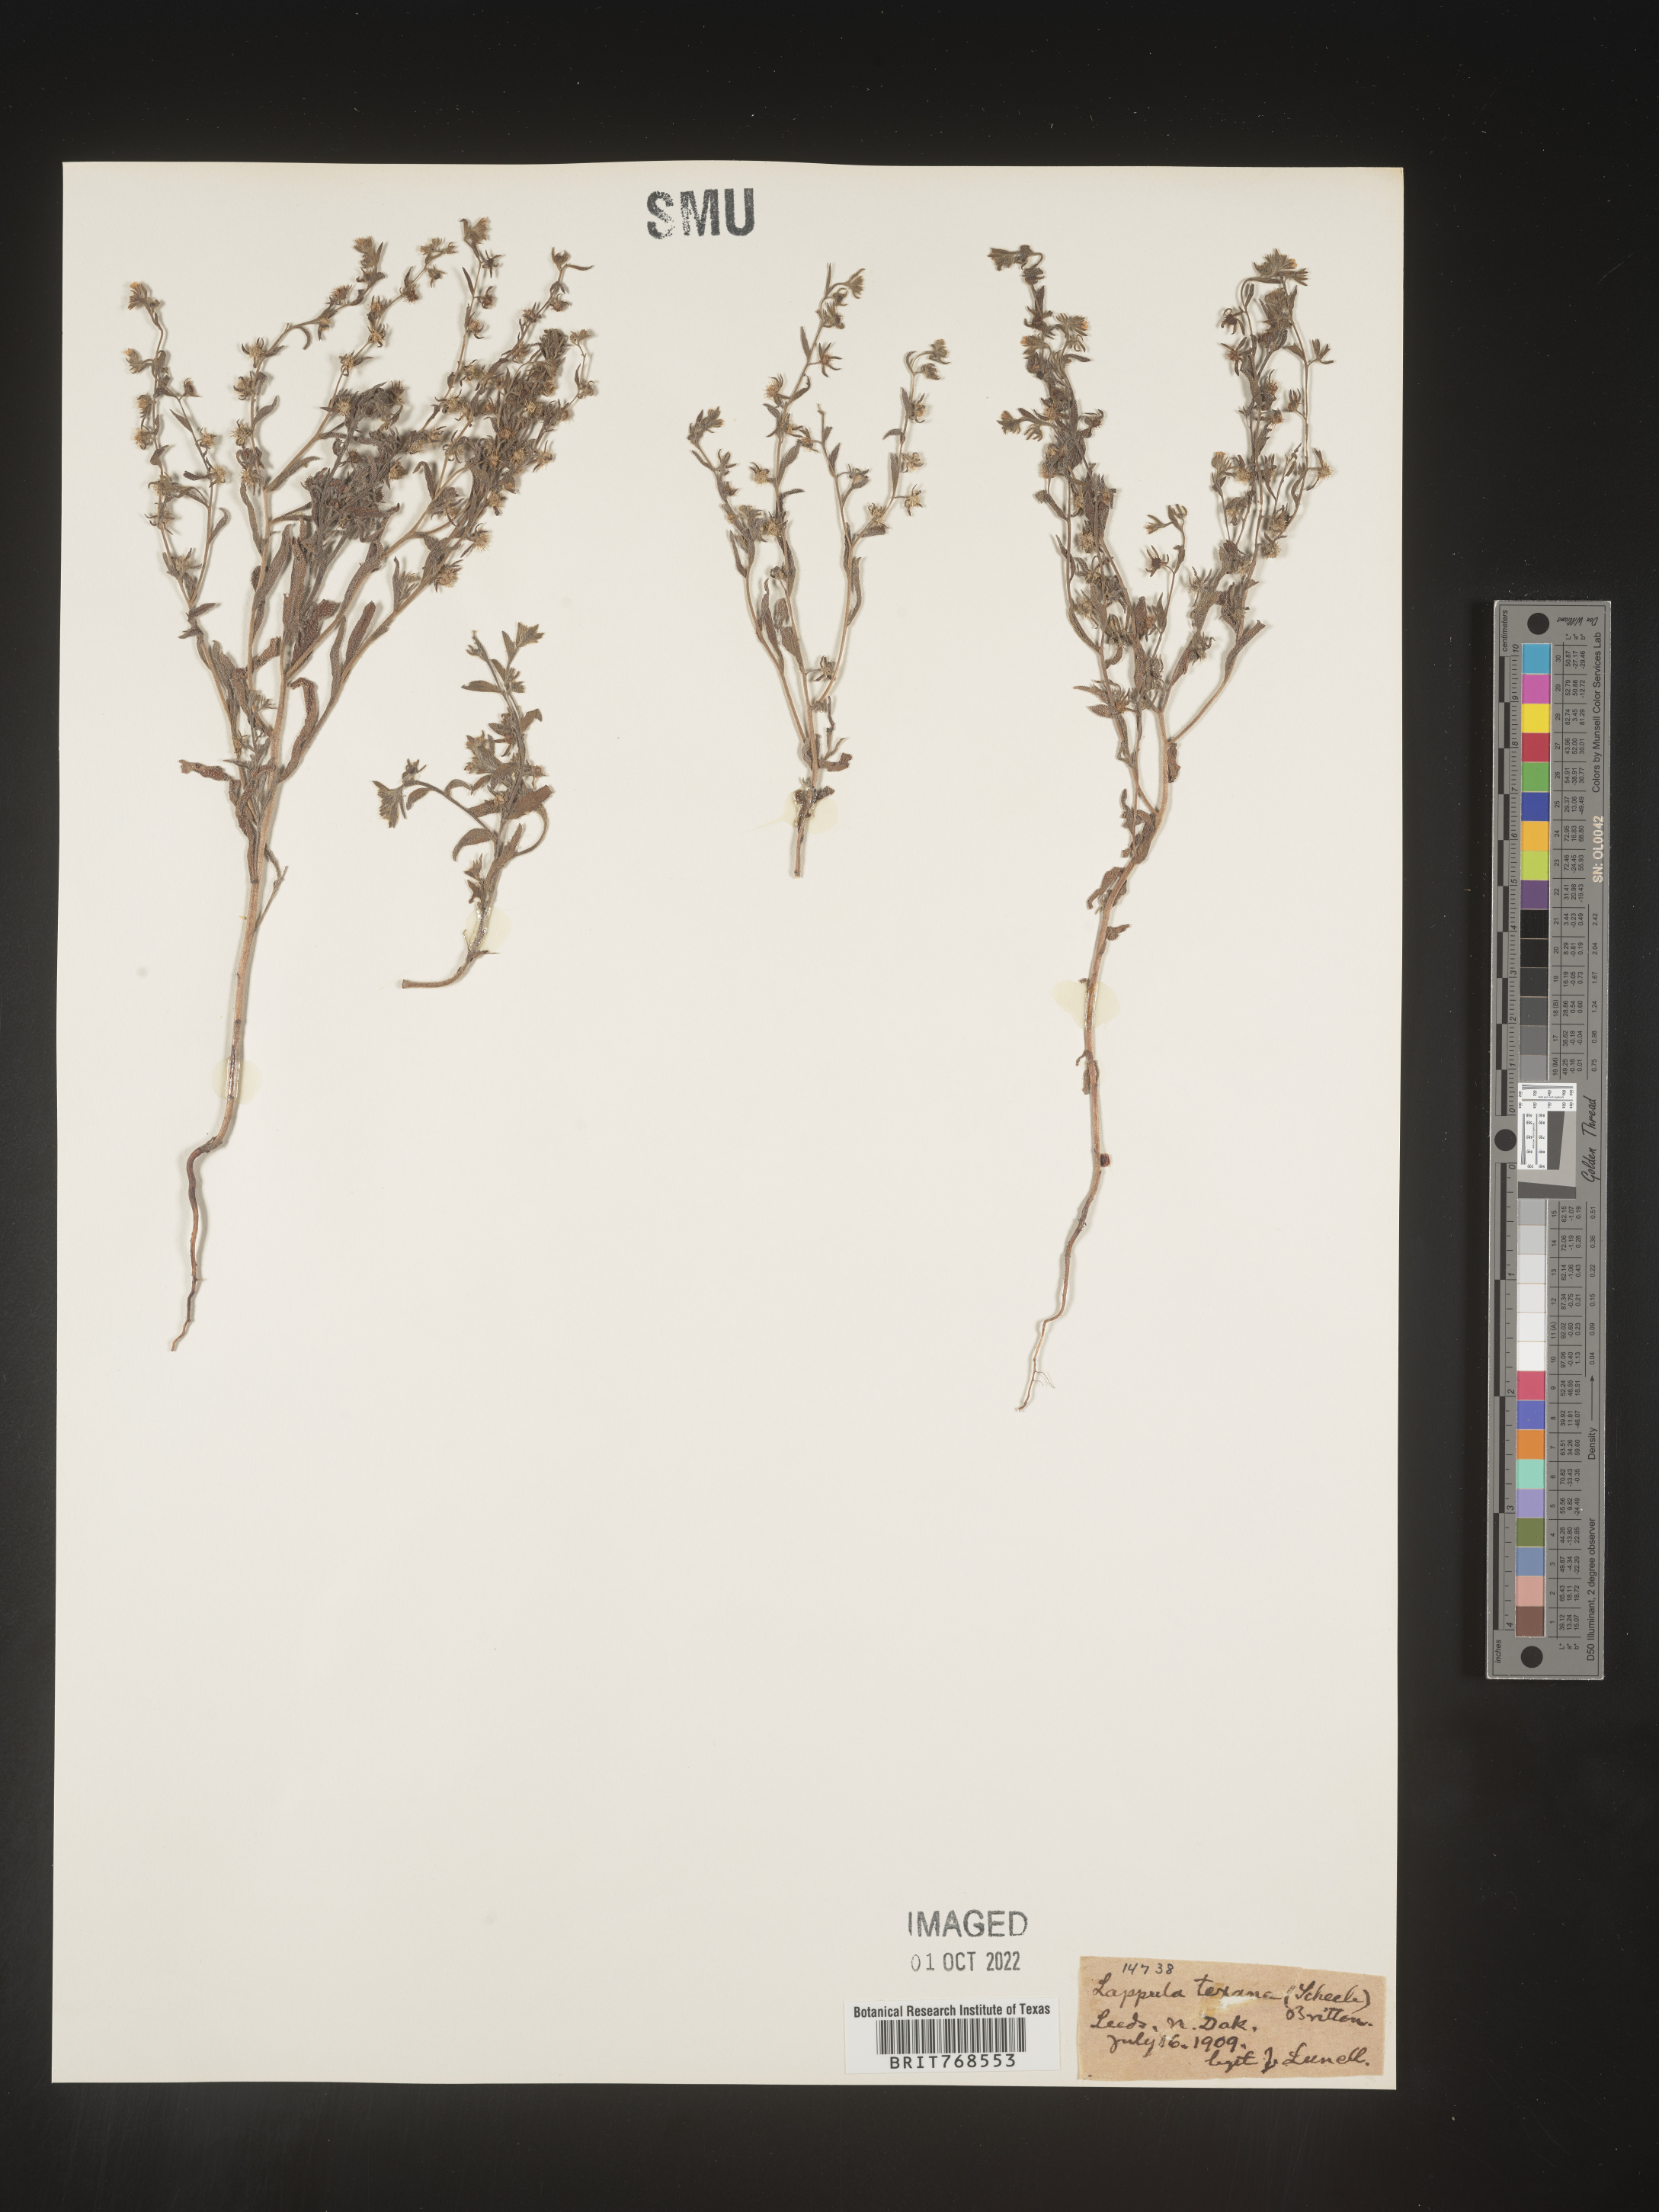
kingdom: Plantae
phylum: Tracheophyta
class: Magnoliopsida
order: Boraginales
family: Boraginaceae
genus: Lappula
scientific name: Lappula
